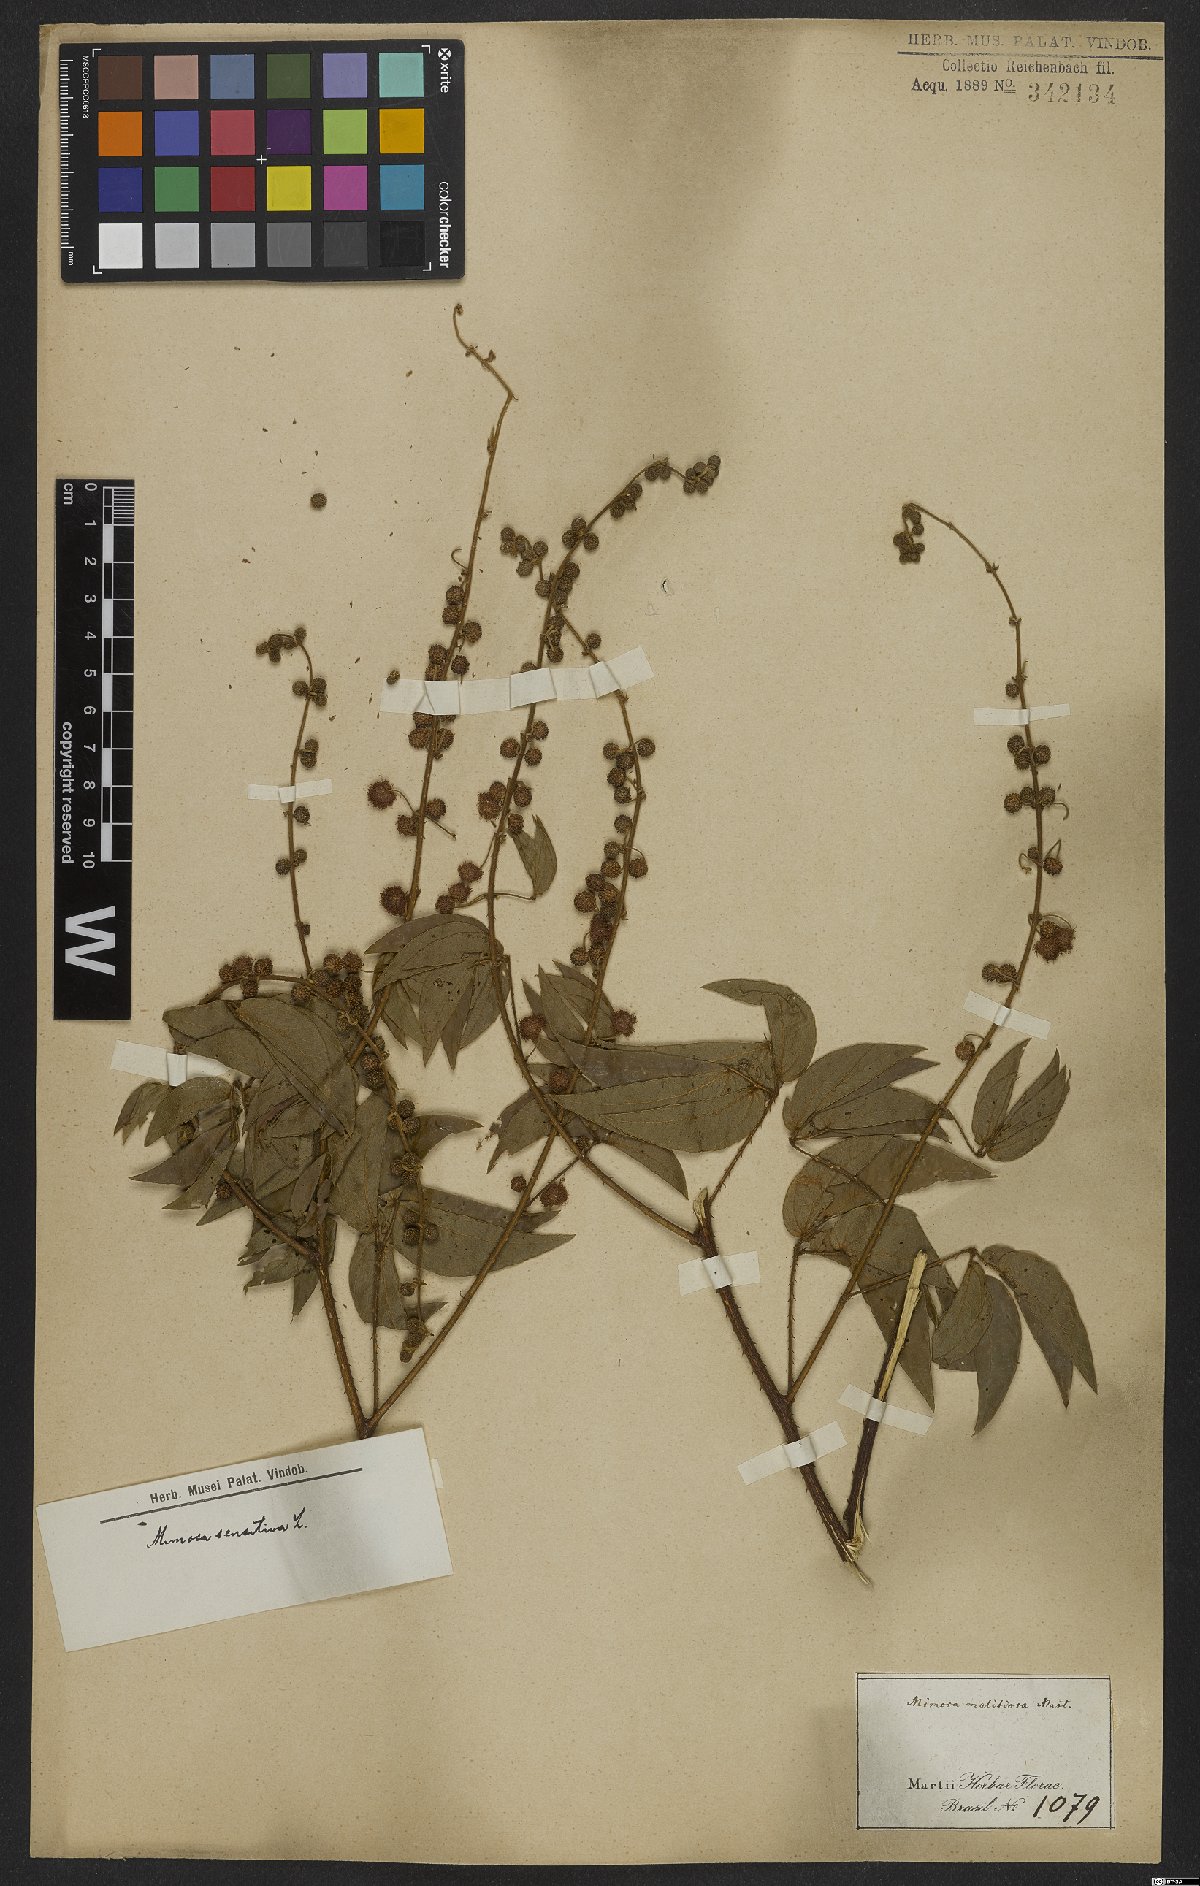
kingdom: Plantae
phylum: Tracheophyta
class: Magnoliopsida
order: Fabales
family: Fabaceae
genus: Mimosa
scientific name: Mimosa sensitiva
